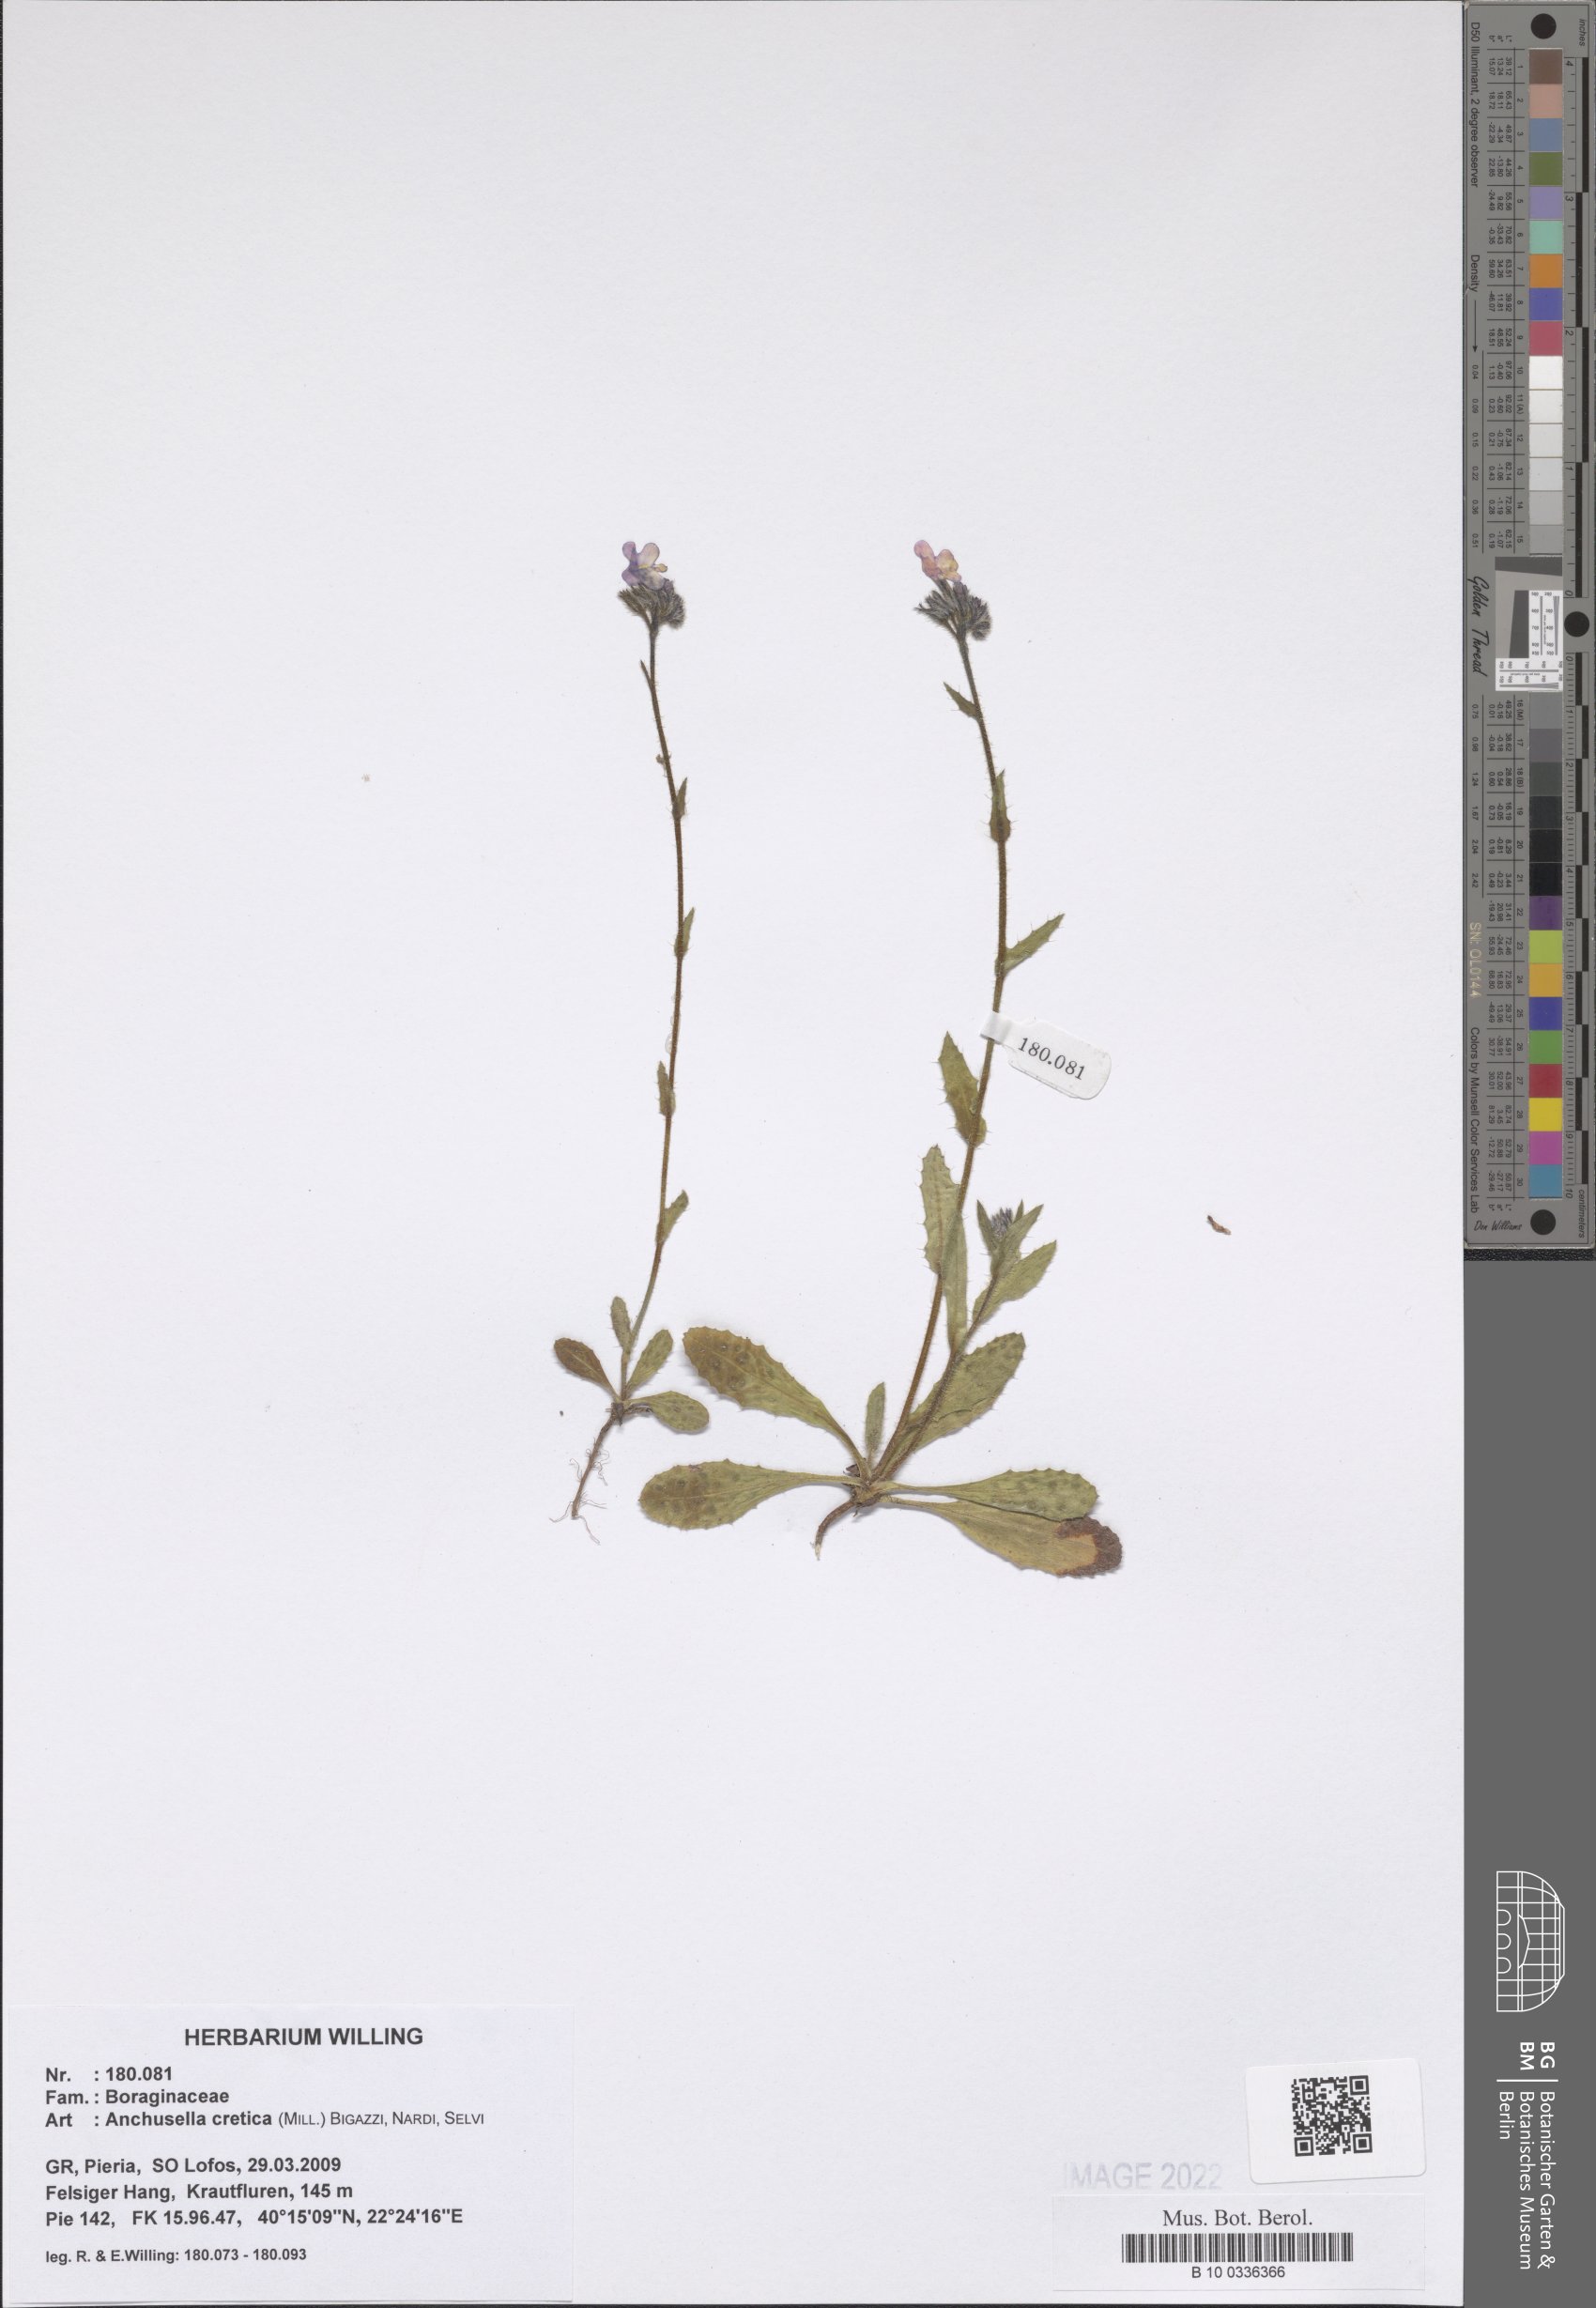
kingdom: Plantae
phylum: Tracheophyta
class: Magnoliopsida
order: Boraginales
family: Boraginaceae
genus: Anchusella
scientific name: Anchusella cretica
